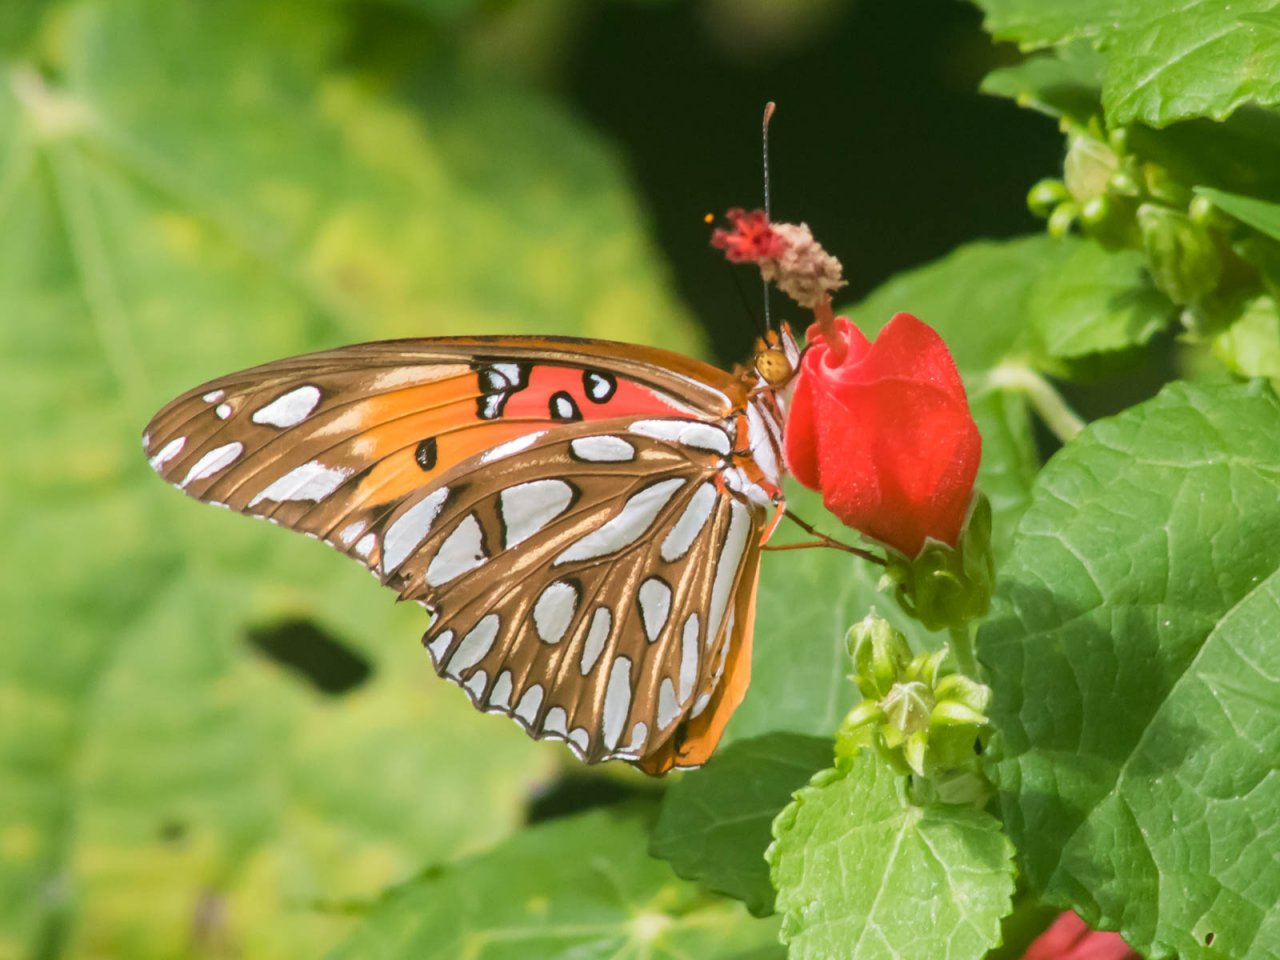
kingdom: Animalia
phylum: Arthropoda
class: Insecta
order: Lepidoptera
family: Nymphalidae
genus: Dione
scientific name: Dione vanillae
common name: Gulf Fritillary
